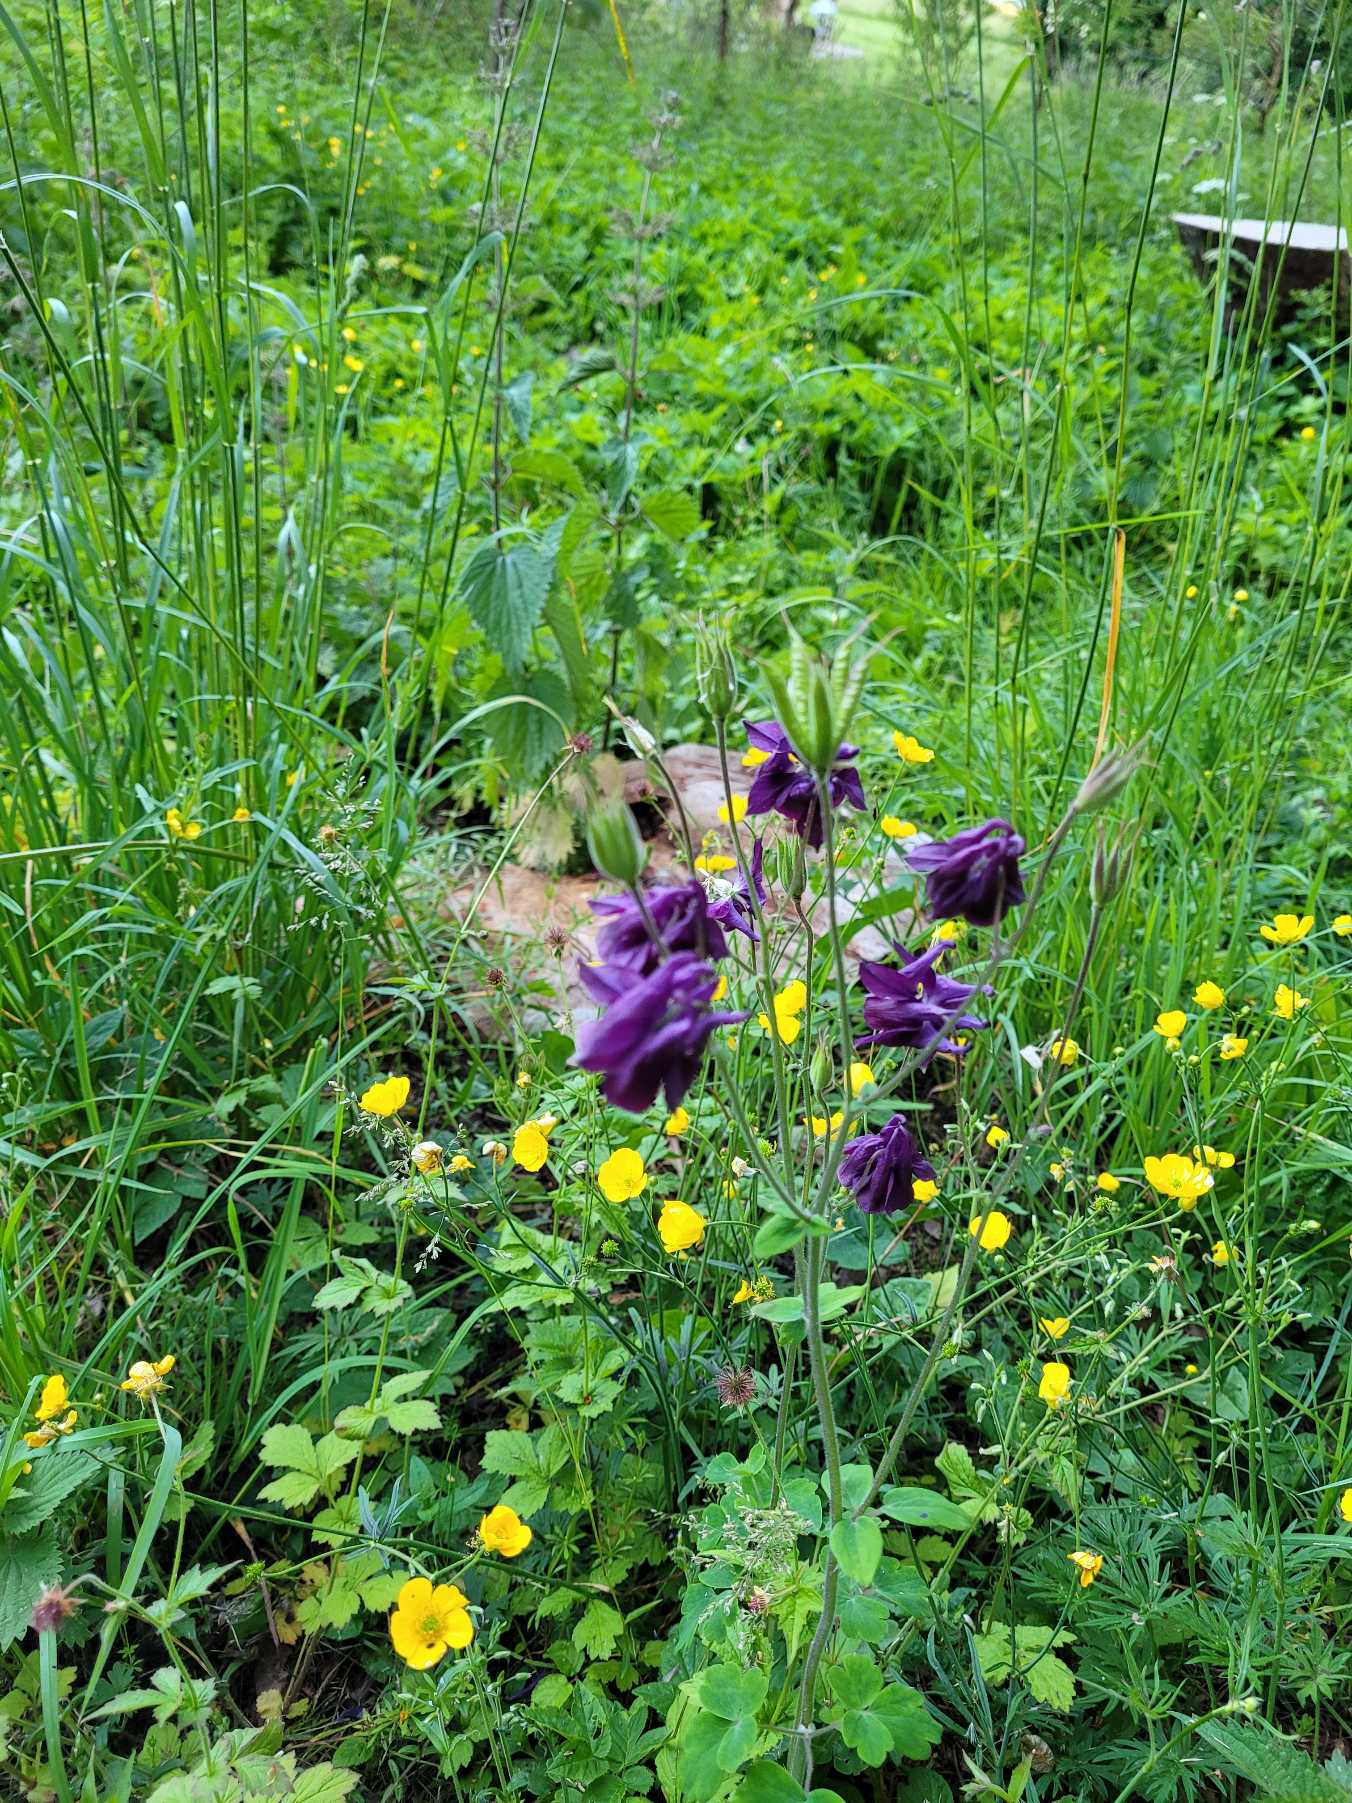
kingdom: Plantae
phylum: Tracheophyta
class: Magnoliopsida
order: Ranunculales
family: Ranunculaceae
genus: Aquilegia
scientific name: Aquilegia vulgaris
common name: Akeleje
